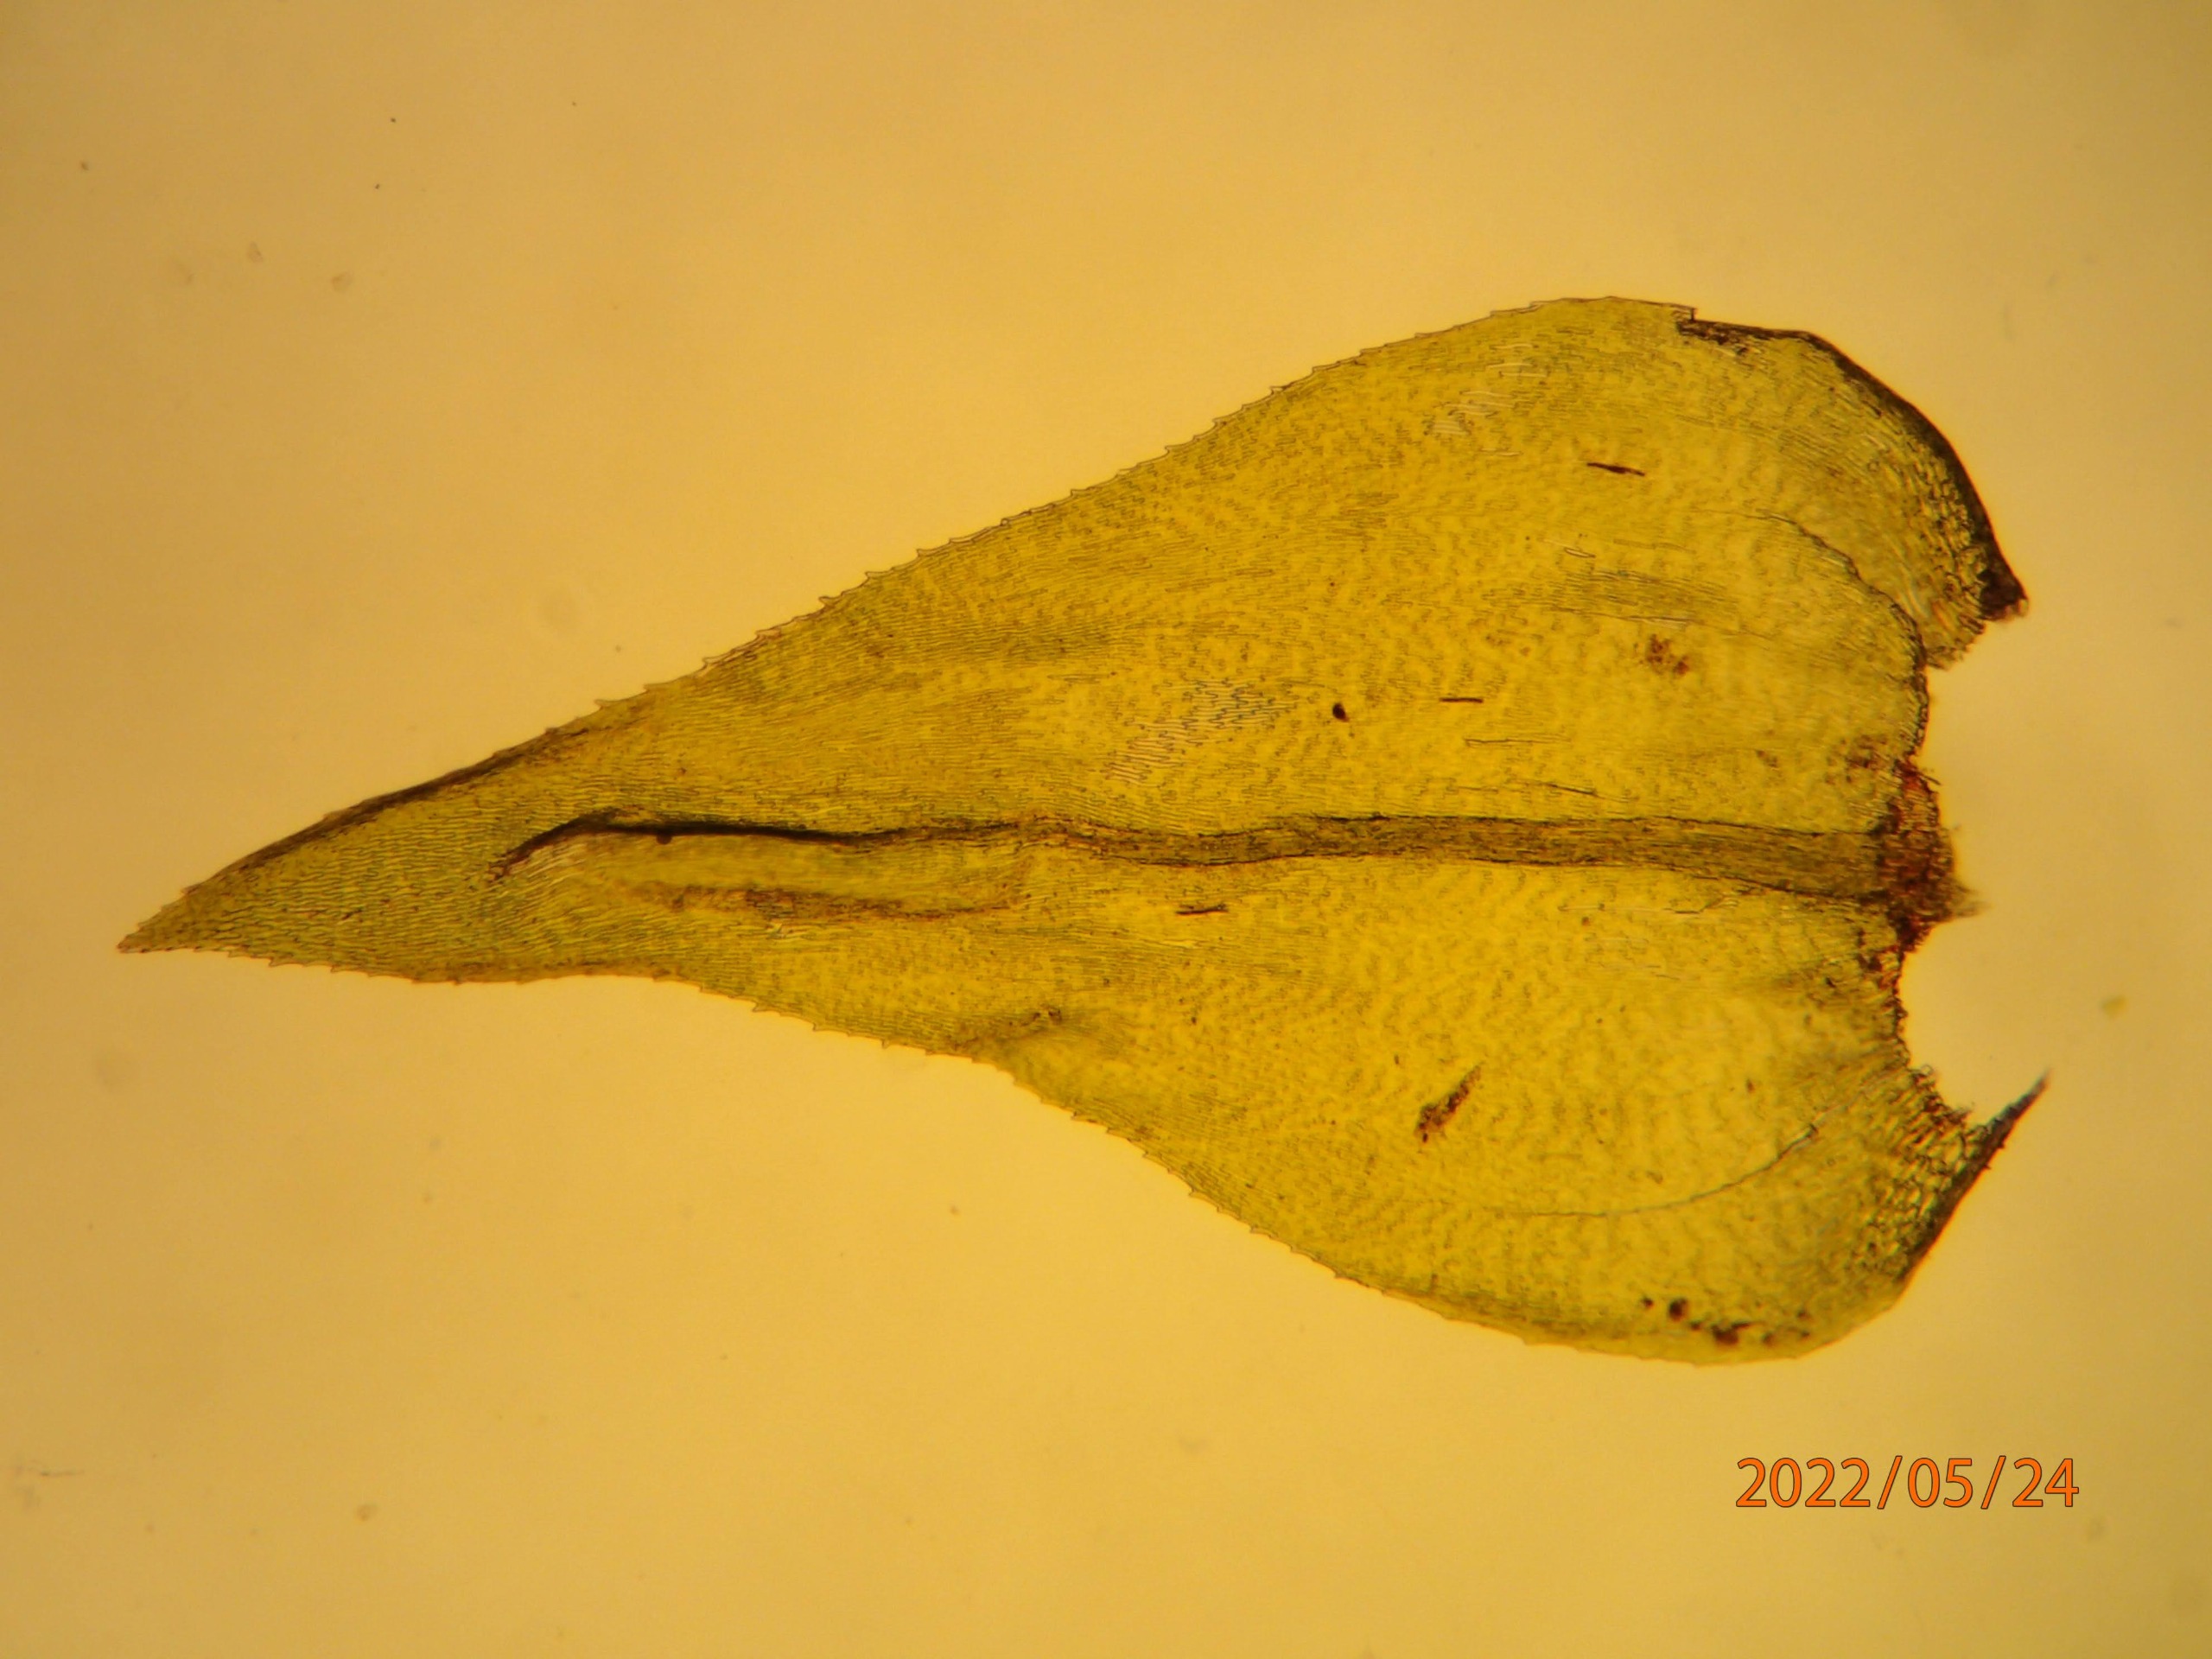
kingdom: Plantae
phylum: Bryophyta
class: Bryopsida
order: Hypnales
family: Brachytheciaceae
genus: Eurhynchium
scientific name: Eurhynchium striatum
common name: Stribet næbmos
